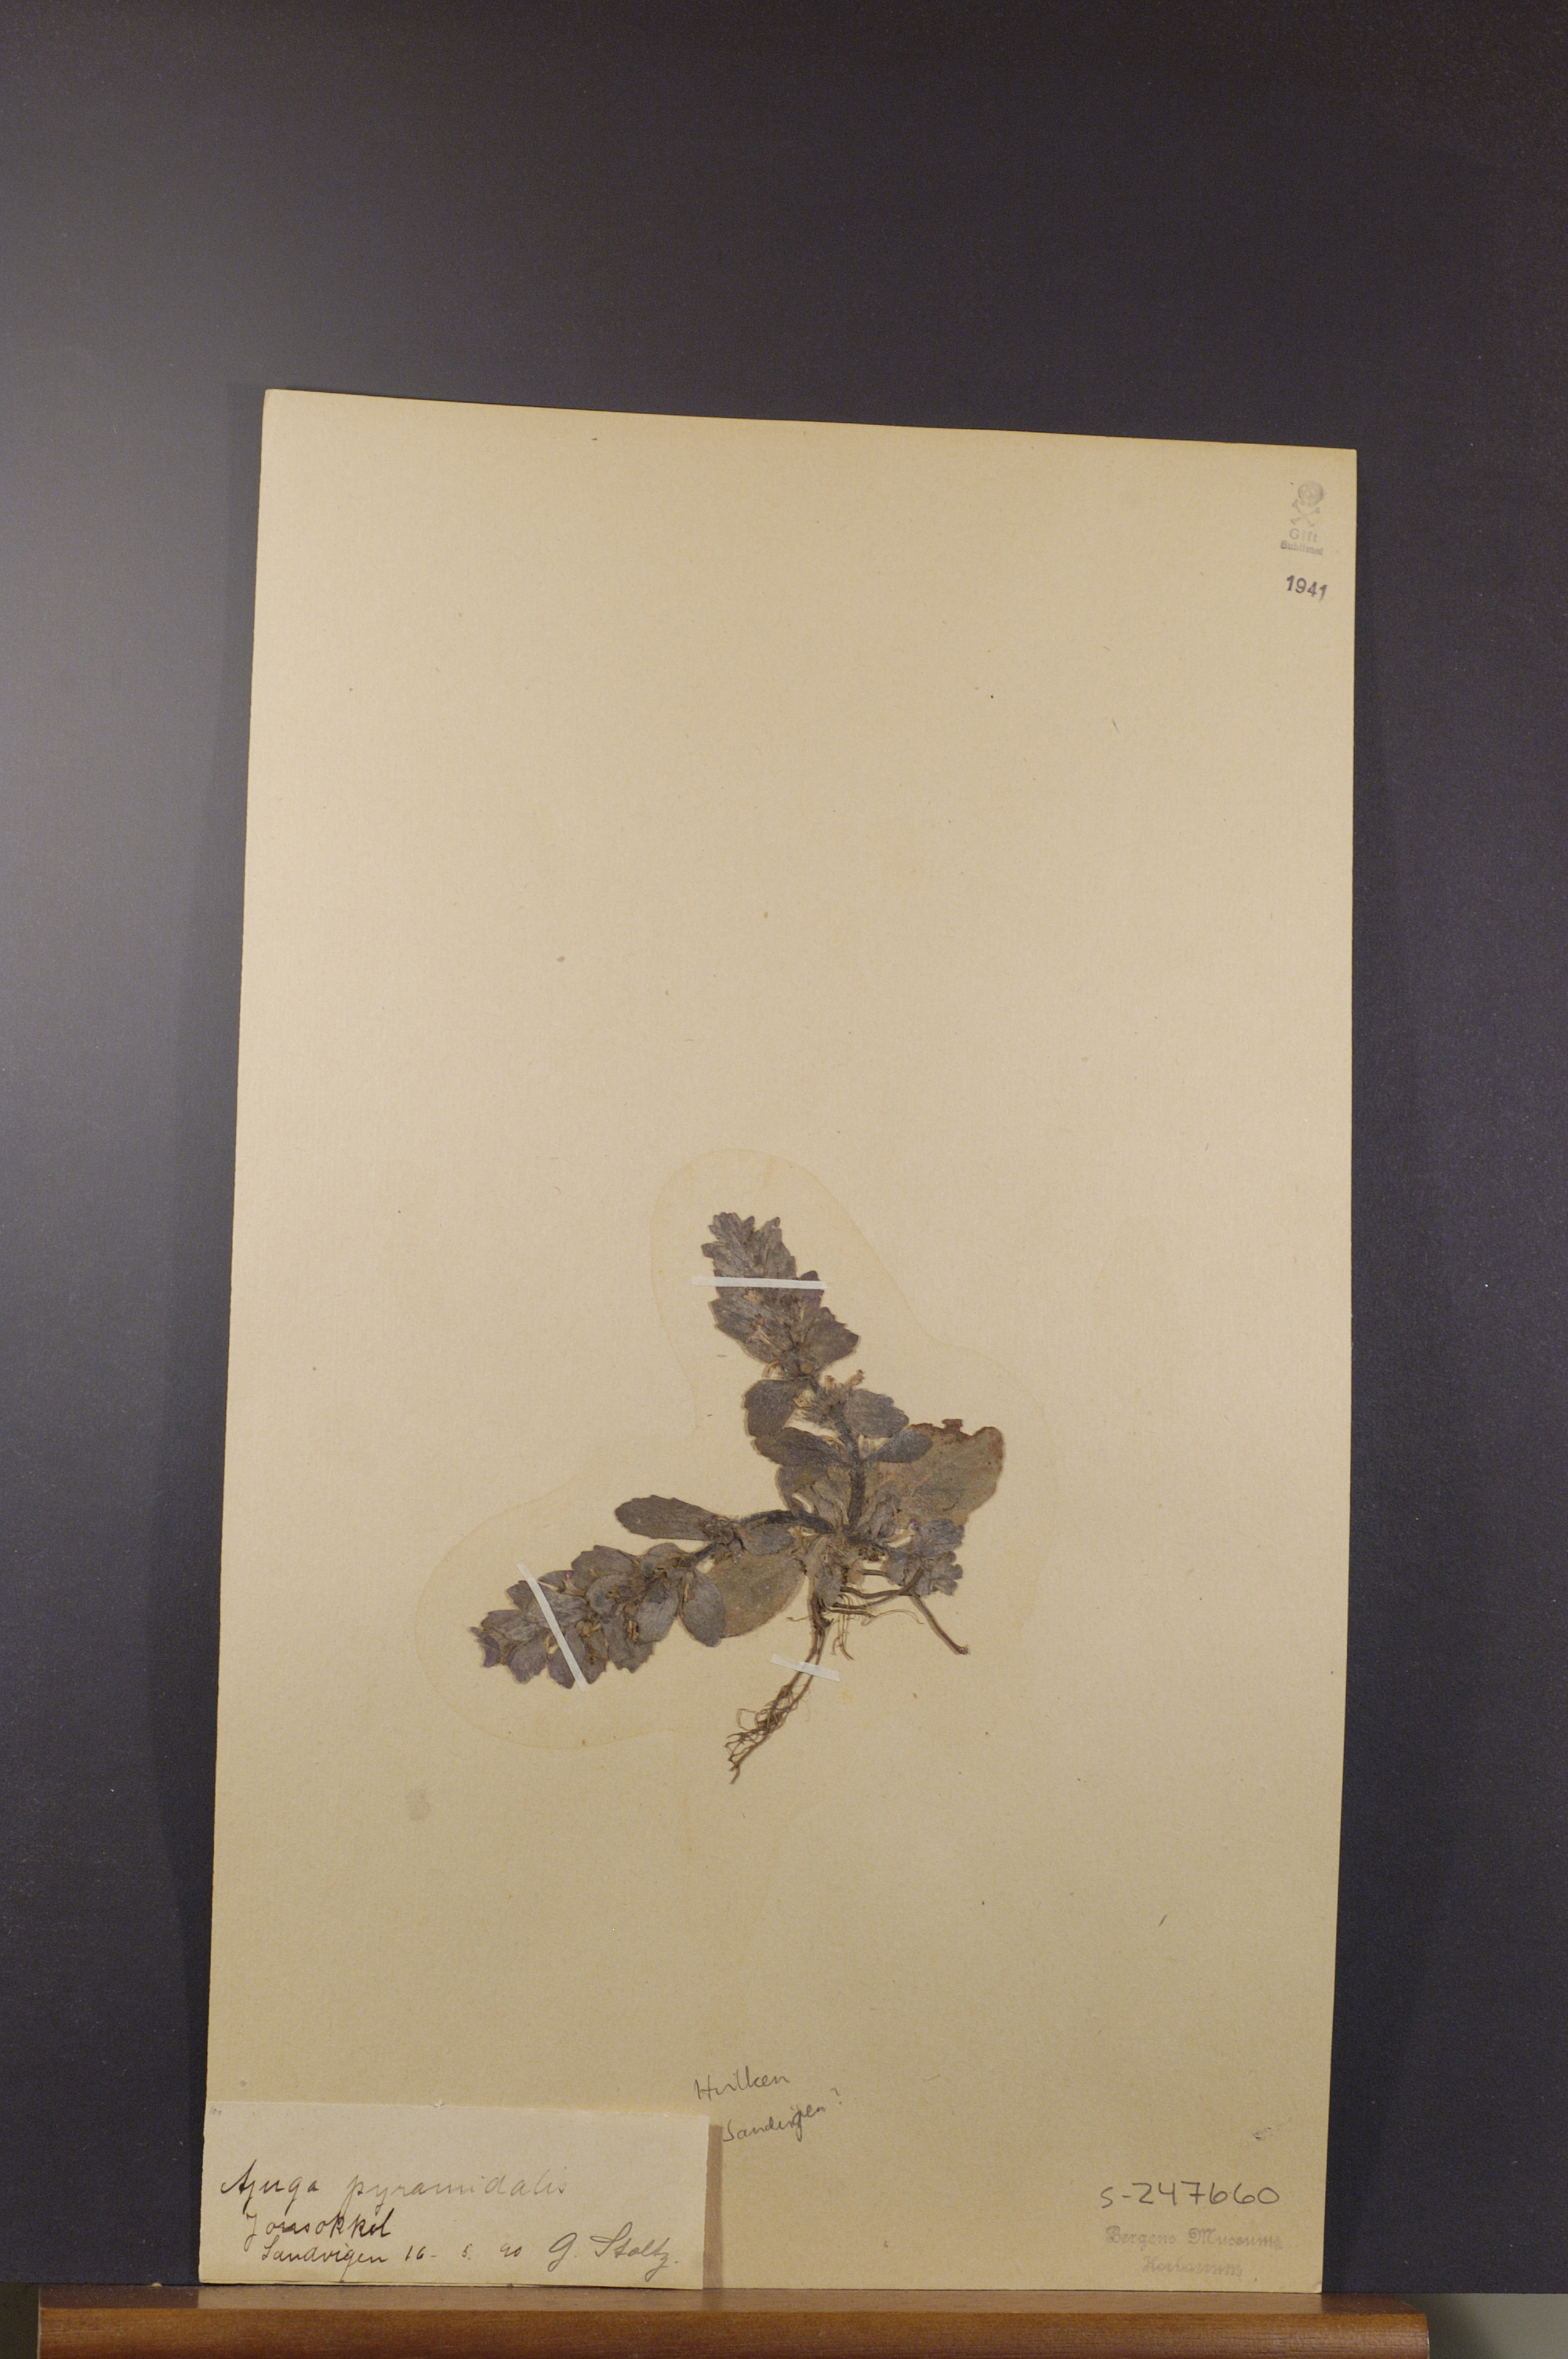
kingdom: Plantae
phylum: Tracheophyta
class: Magnoliopsida
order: Lamiales
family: Lamiaceae
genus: Ajuga
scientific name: Ajuga pyramidalis
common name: Pyramid bugle
